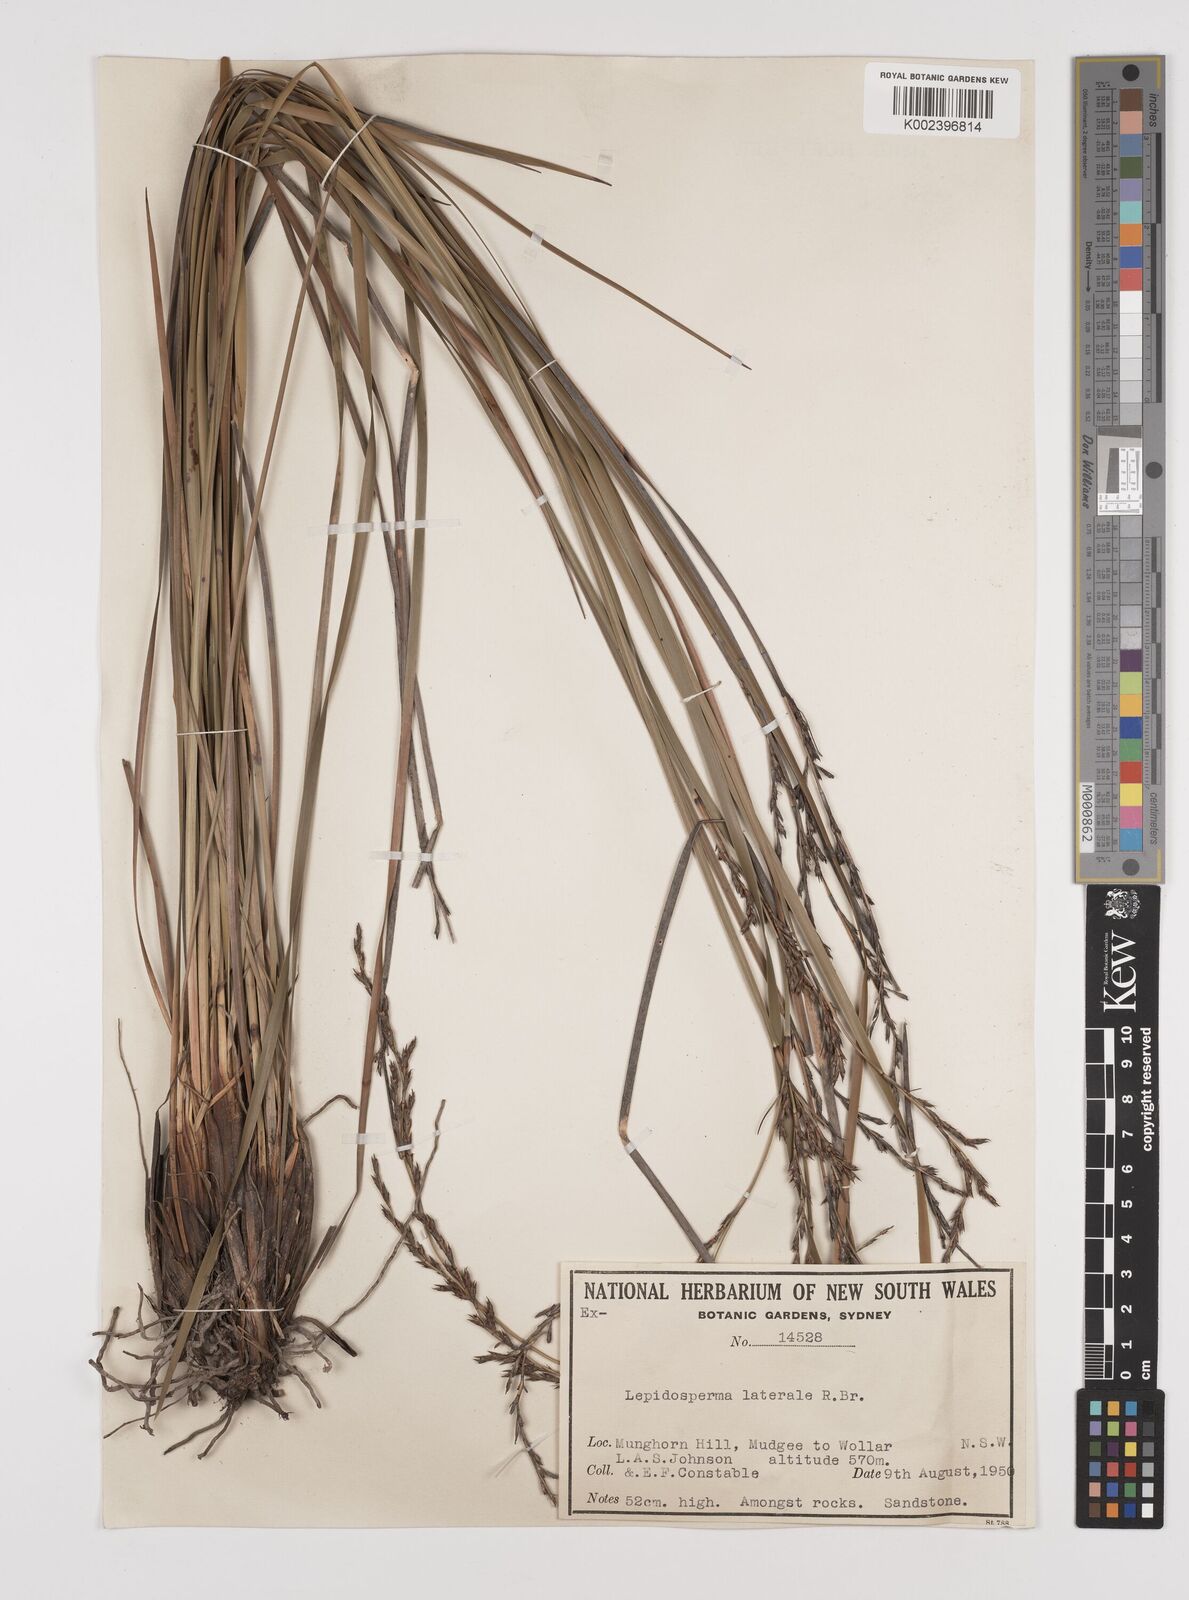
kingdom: Plantae
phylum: Tracheophyta
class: Liliopsida
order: Poales
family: Cyperaceae
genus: Lepidosperma
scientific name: Lepidosperma laterale
